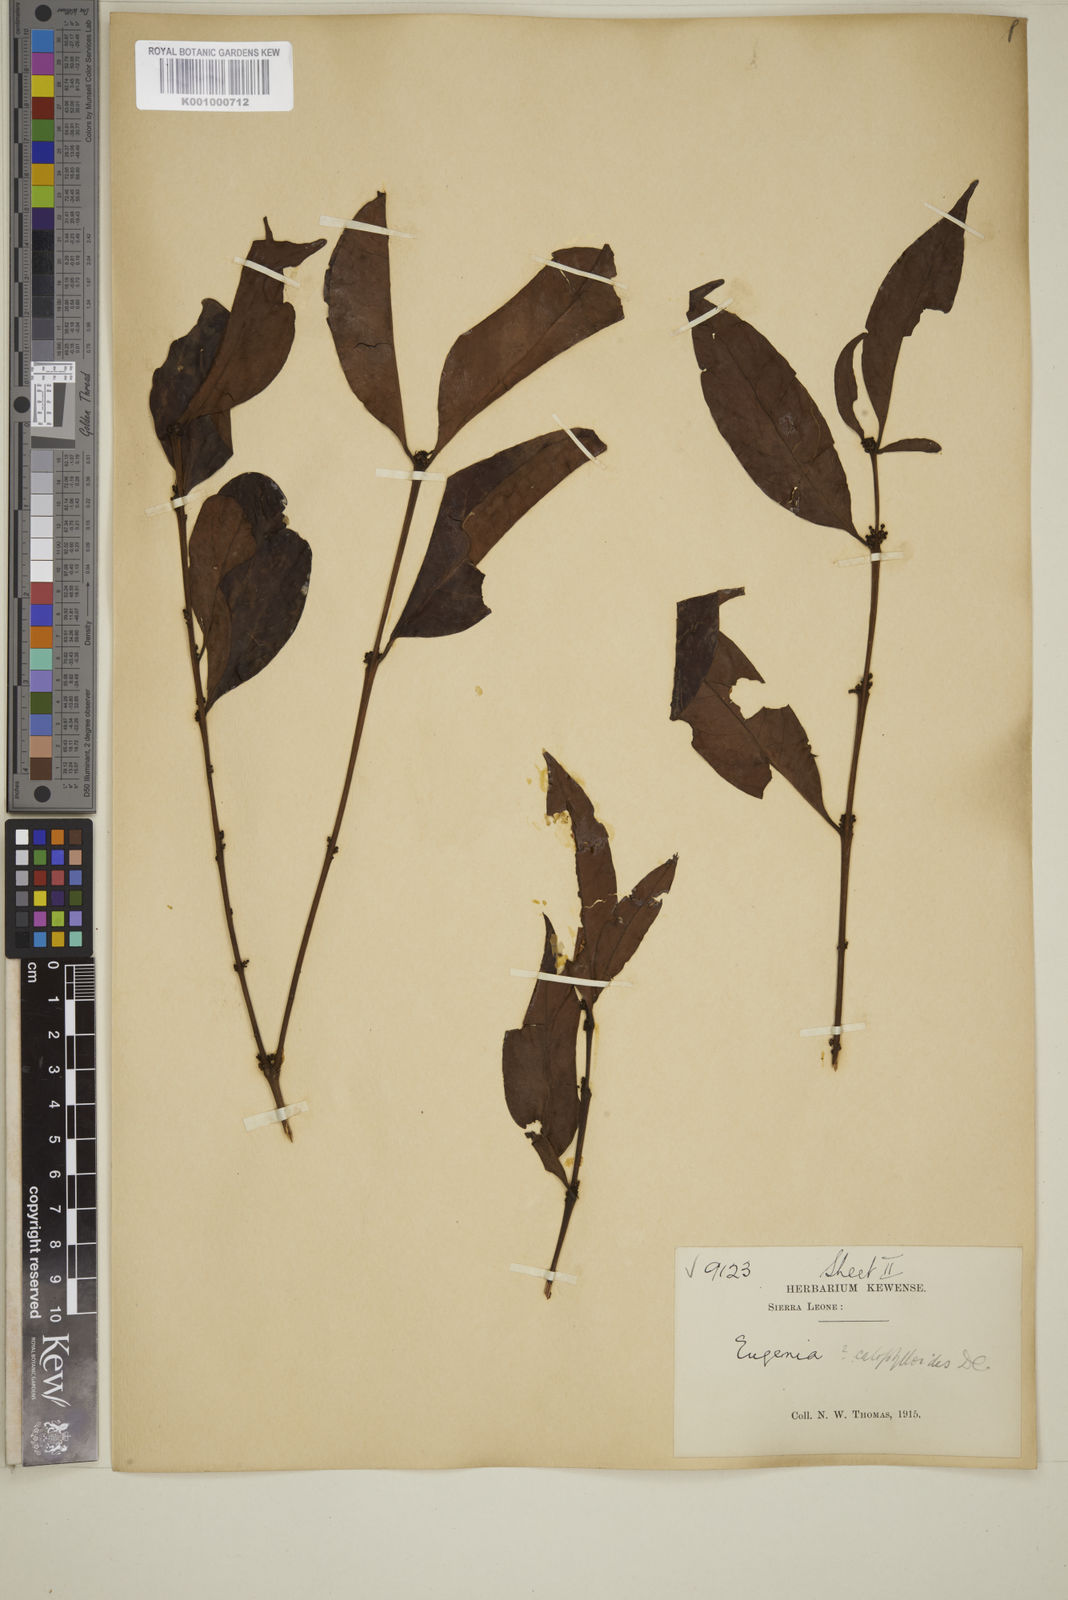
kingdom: Plantae
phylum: Tracheophyta
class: Magnoliopsida
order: Myrtales
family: Myrtaceae
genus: Eugenia
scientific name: Eugenia calophylloides
